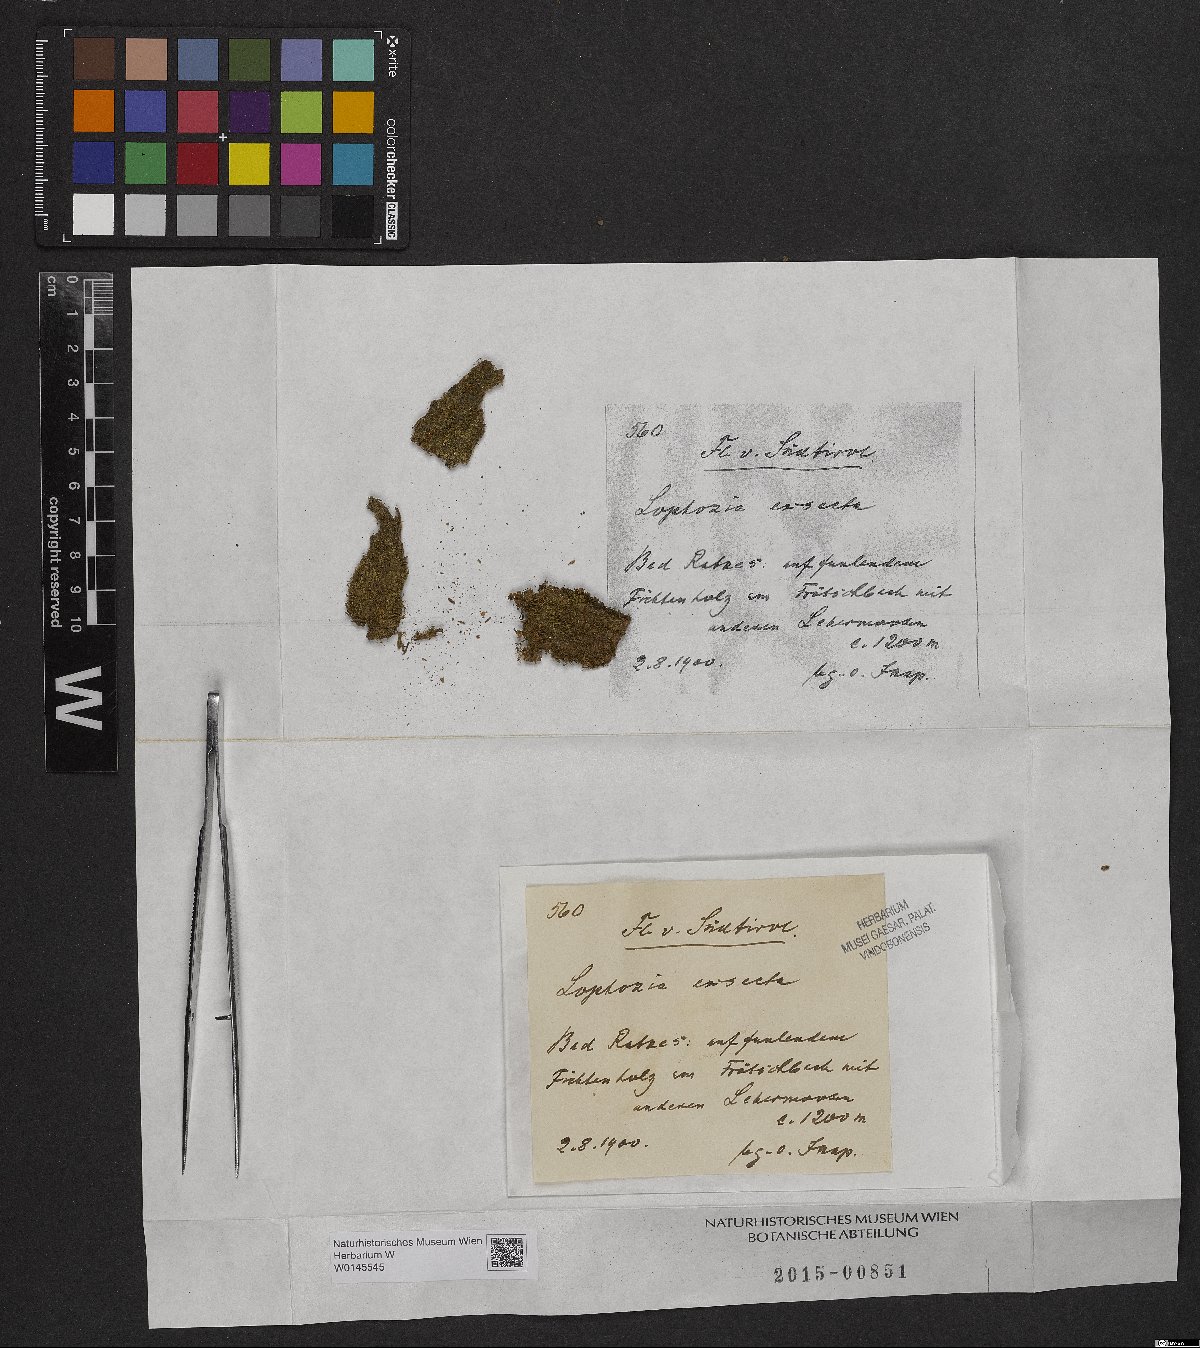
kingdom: Plantae
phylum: Marchantiophyta
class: Jungermanniopsida
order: Jungermanniales
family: Lophoziaceae
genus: Tritomaria
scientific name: Tritomaria exsecta
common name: Cut notchwort
